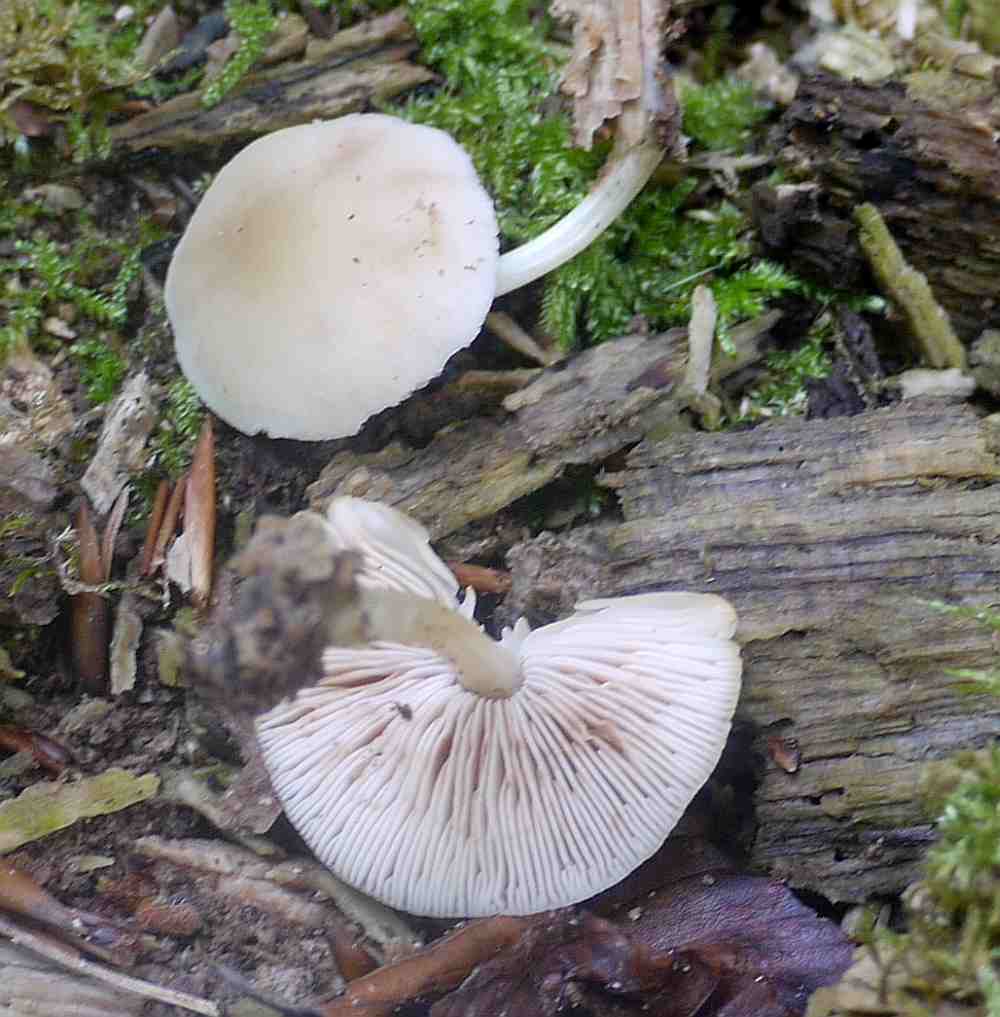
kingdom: Fungi
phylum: Basidiomycota
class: Agaricomycetes
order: Agaricales
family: Pluteaceae
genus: Pluteus
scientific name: Pluteus semibulbosus
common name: knoldet skærmhat
